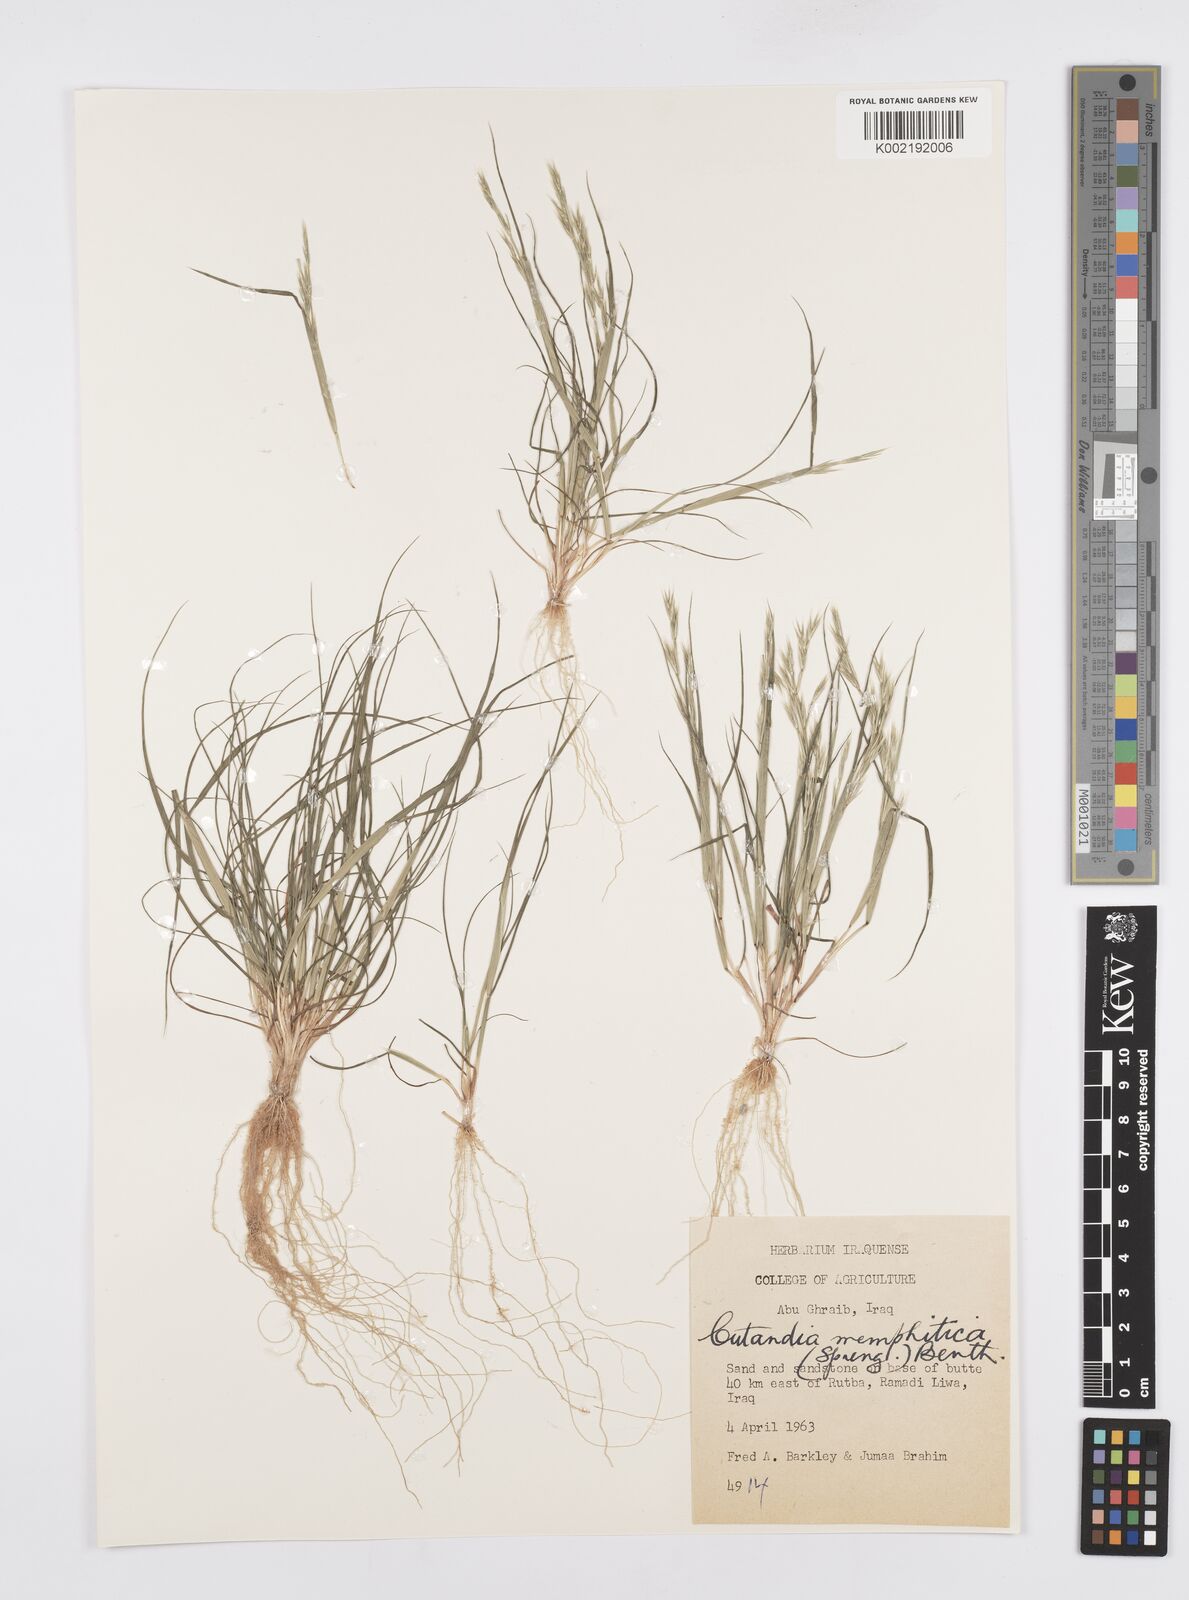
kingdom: Plantae
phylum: Tracheophyta
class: Liliopsida
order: Poales
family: Poaceae
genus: Cutandia
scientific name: Cutandia memphitica
